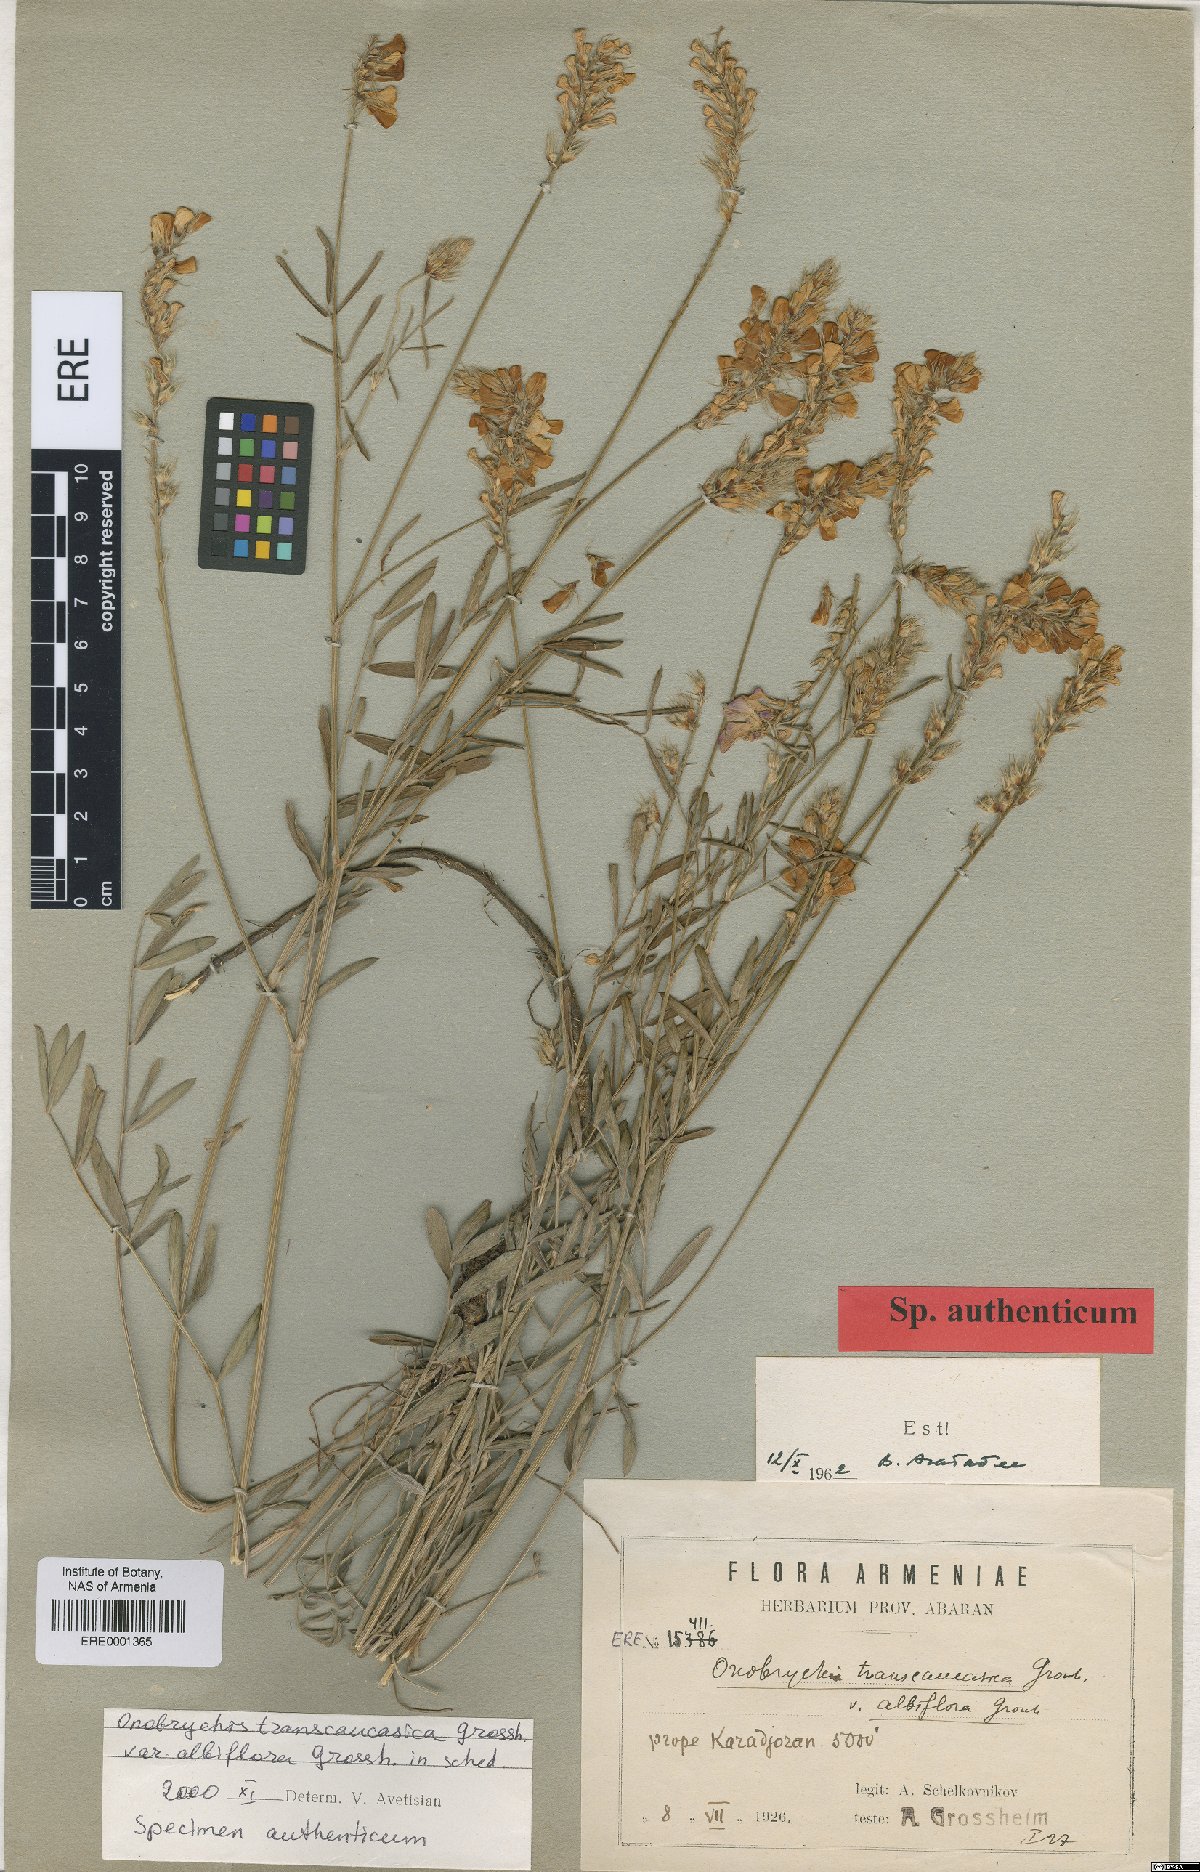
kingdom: Plantae
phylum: Tracheophyta
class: Magnoliopsida
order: Fabales
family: Fabaceae
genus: Onobrychis
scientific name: Onobrychis transcaucasica
